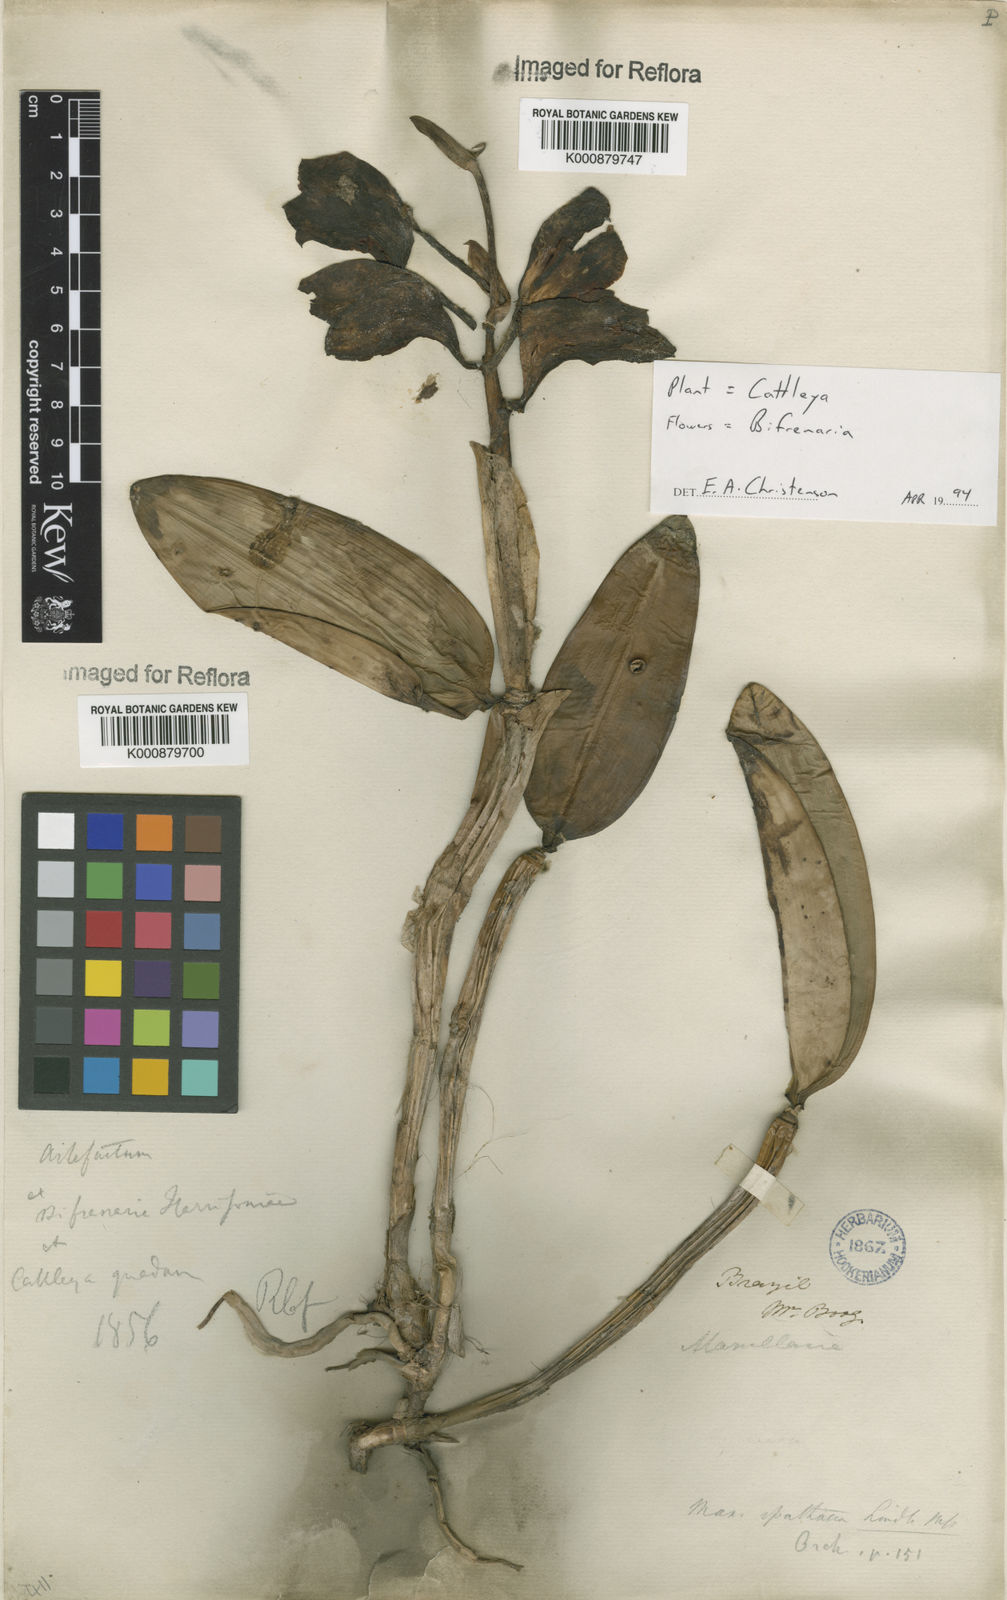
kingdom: Plantae
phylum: Tracheophyta
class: Liliopsida
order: Asparagales
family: Orchidaceae
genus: Cattleya
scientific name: Cattleya
